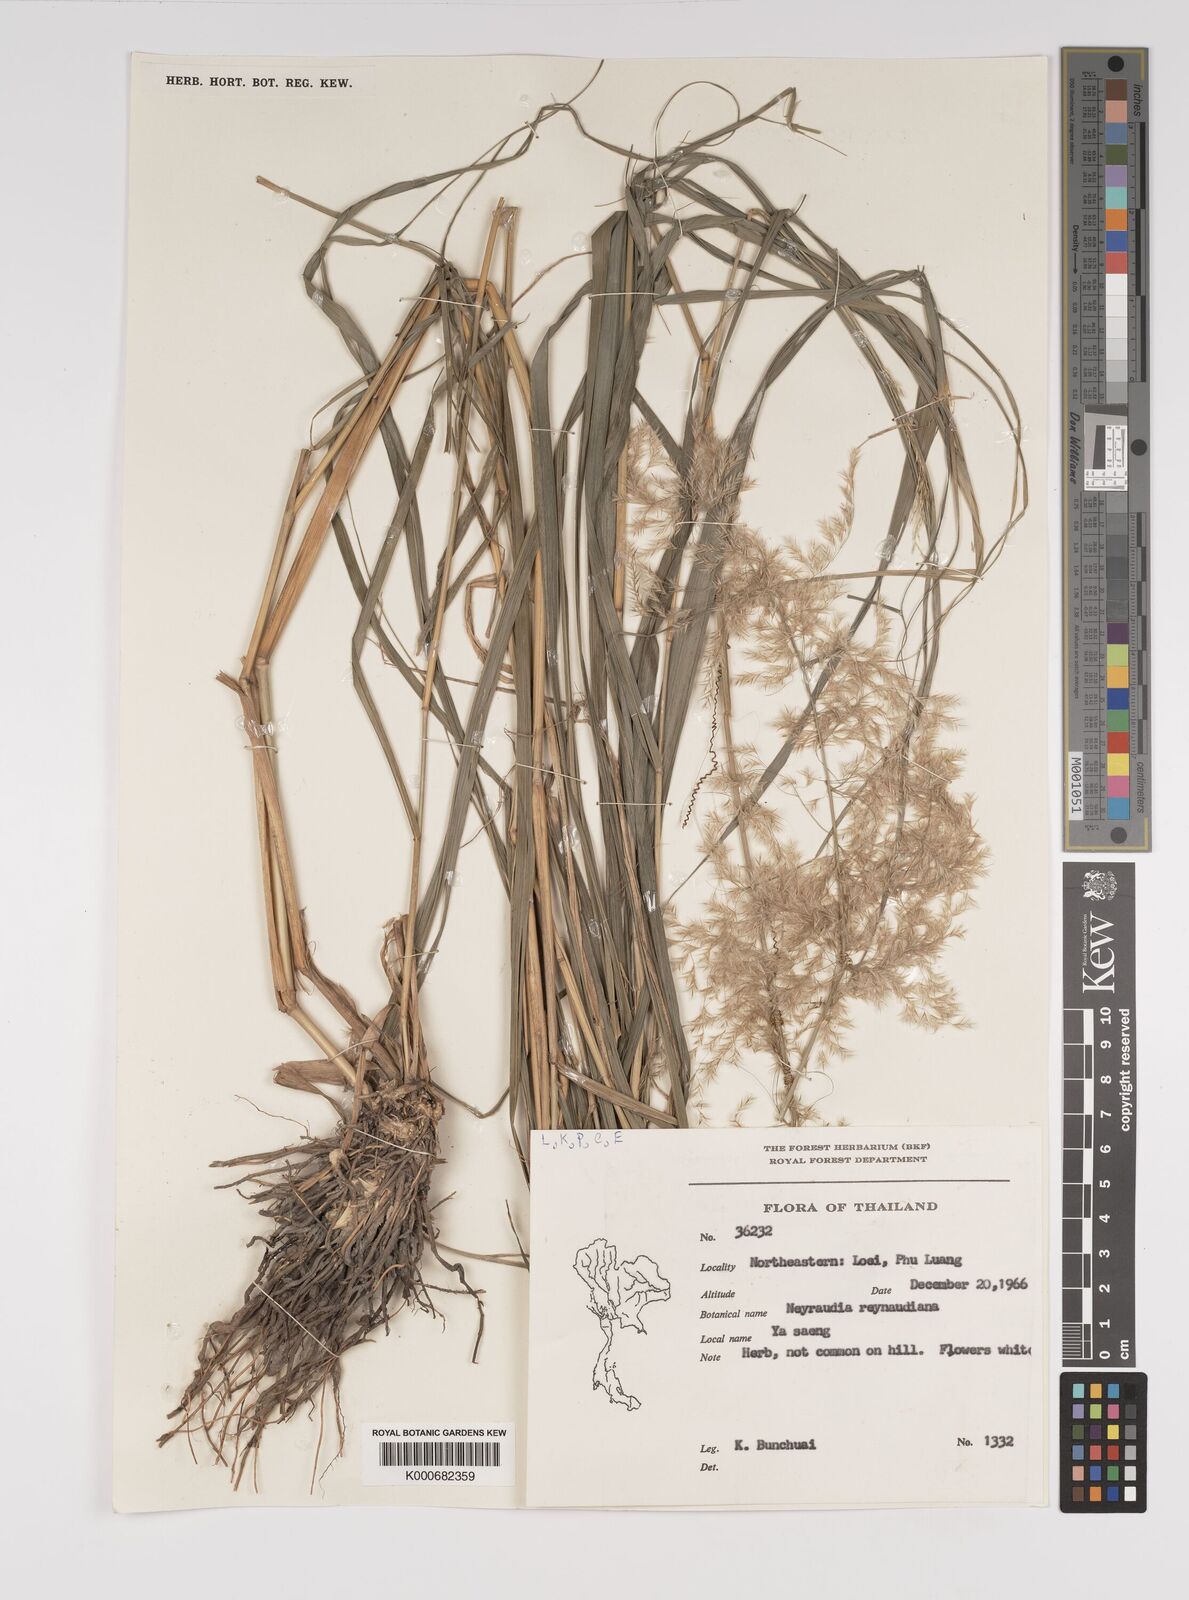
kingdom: Plantae
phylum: Tracheophyta
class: Liliopsida
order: Poales
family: Poaceae
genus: Neyraudia
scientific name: Neyraudia reynaudiana
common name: Silkreed
